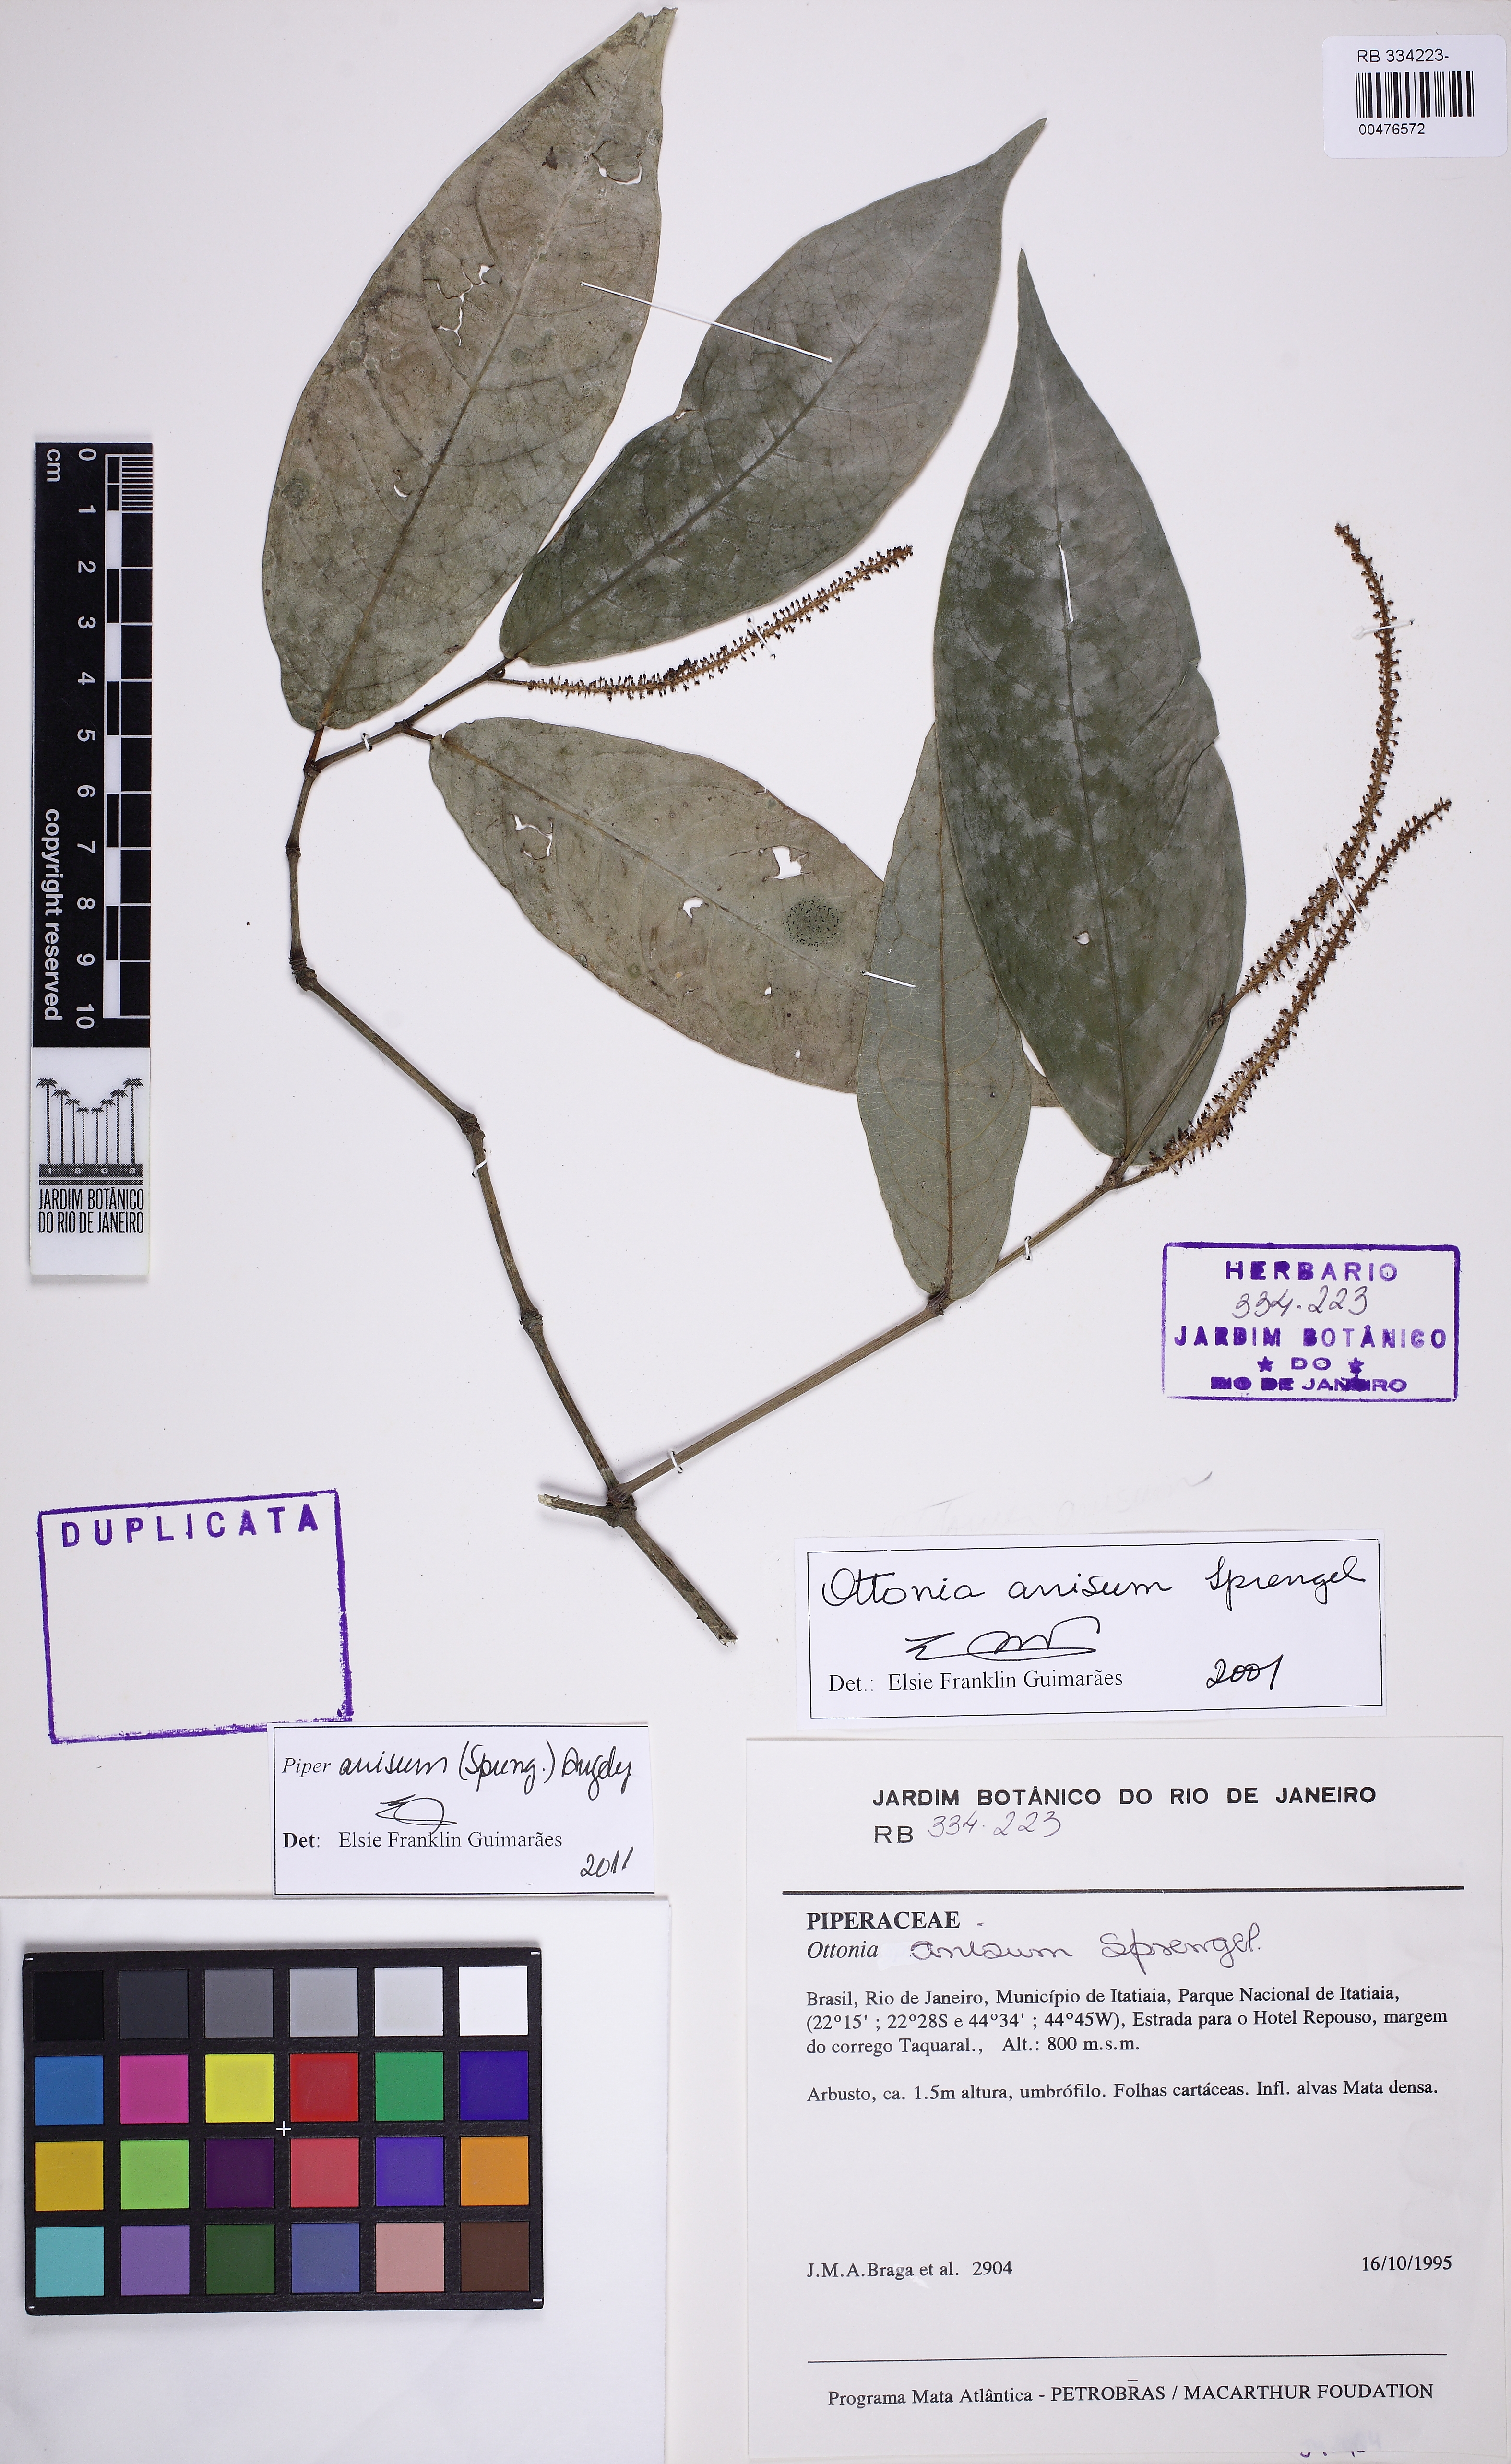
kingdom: Plantae
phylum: Tracheophyta
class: Magnoliopsida
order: Piperales
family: Piperaceae
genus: Piper
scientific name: Piper anisum
